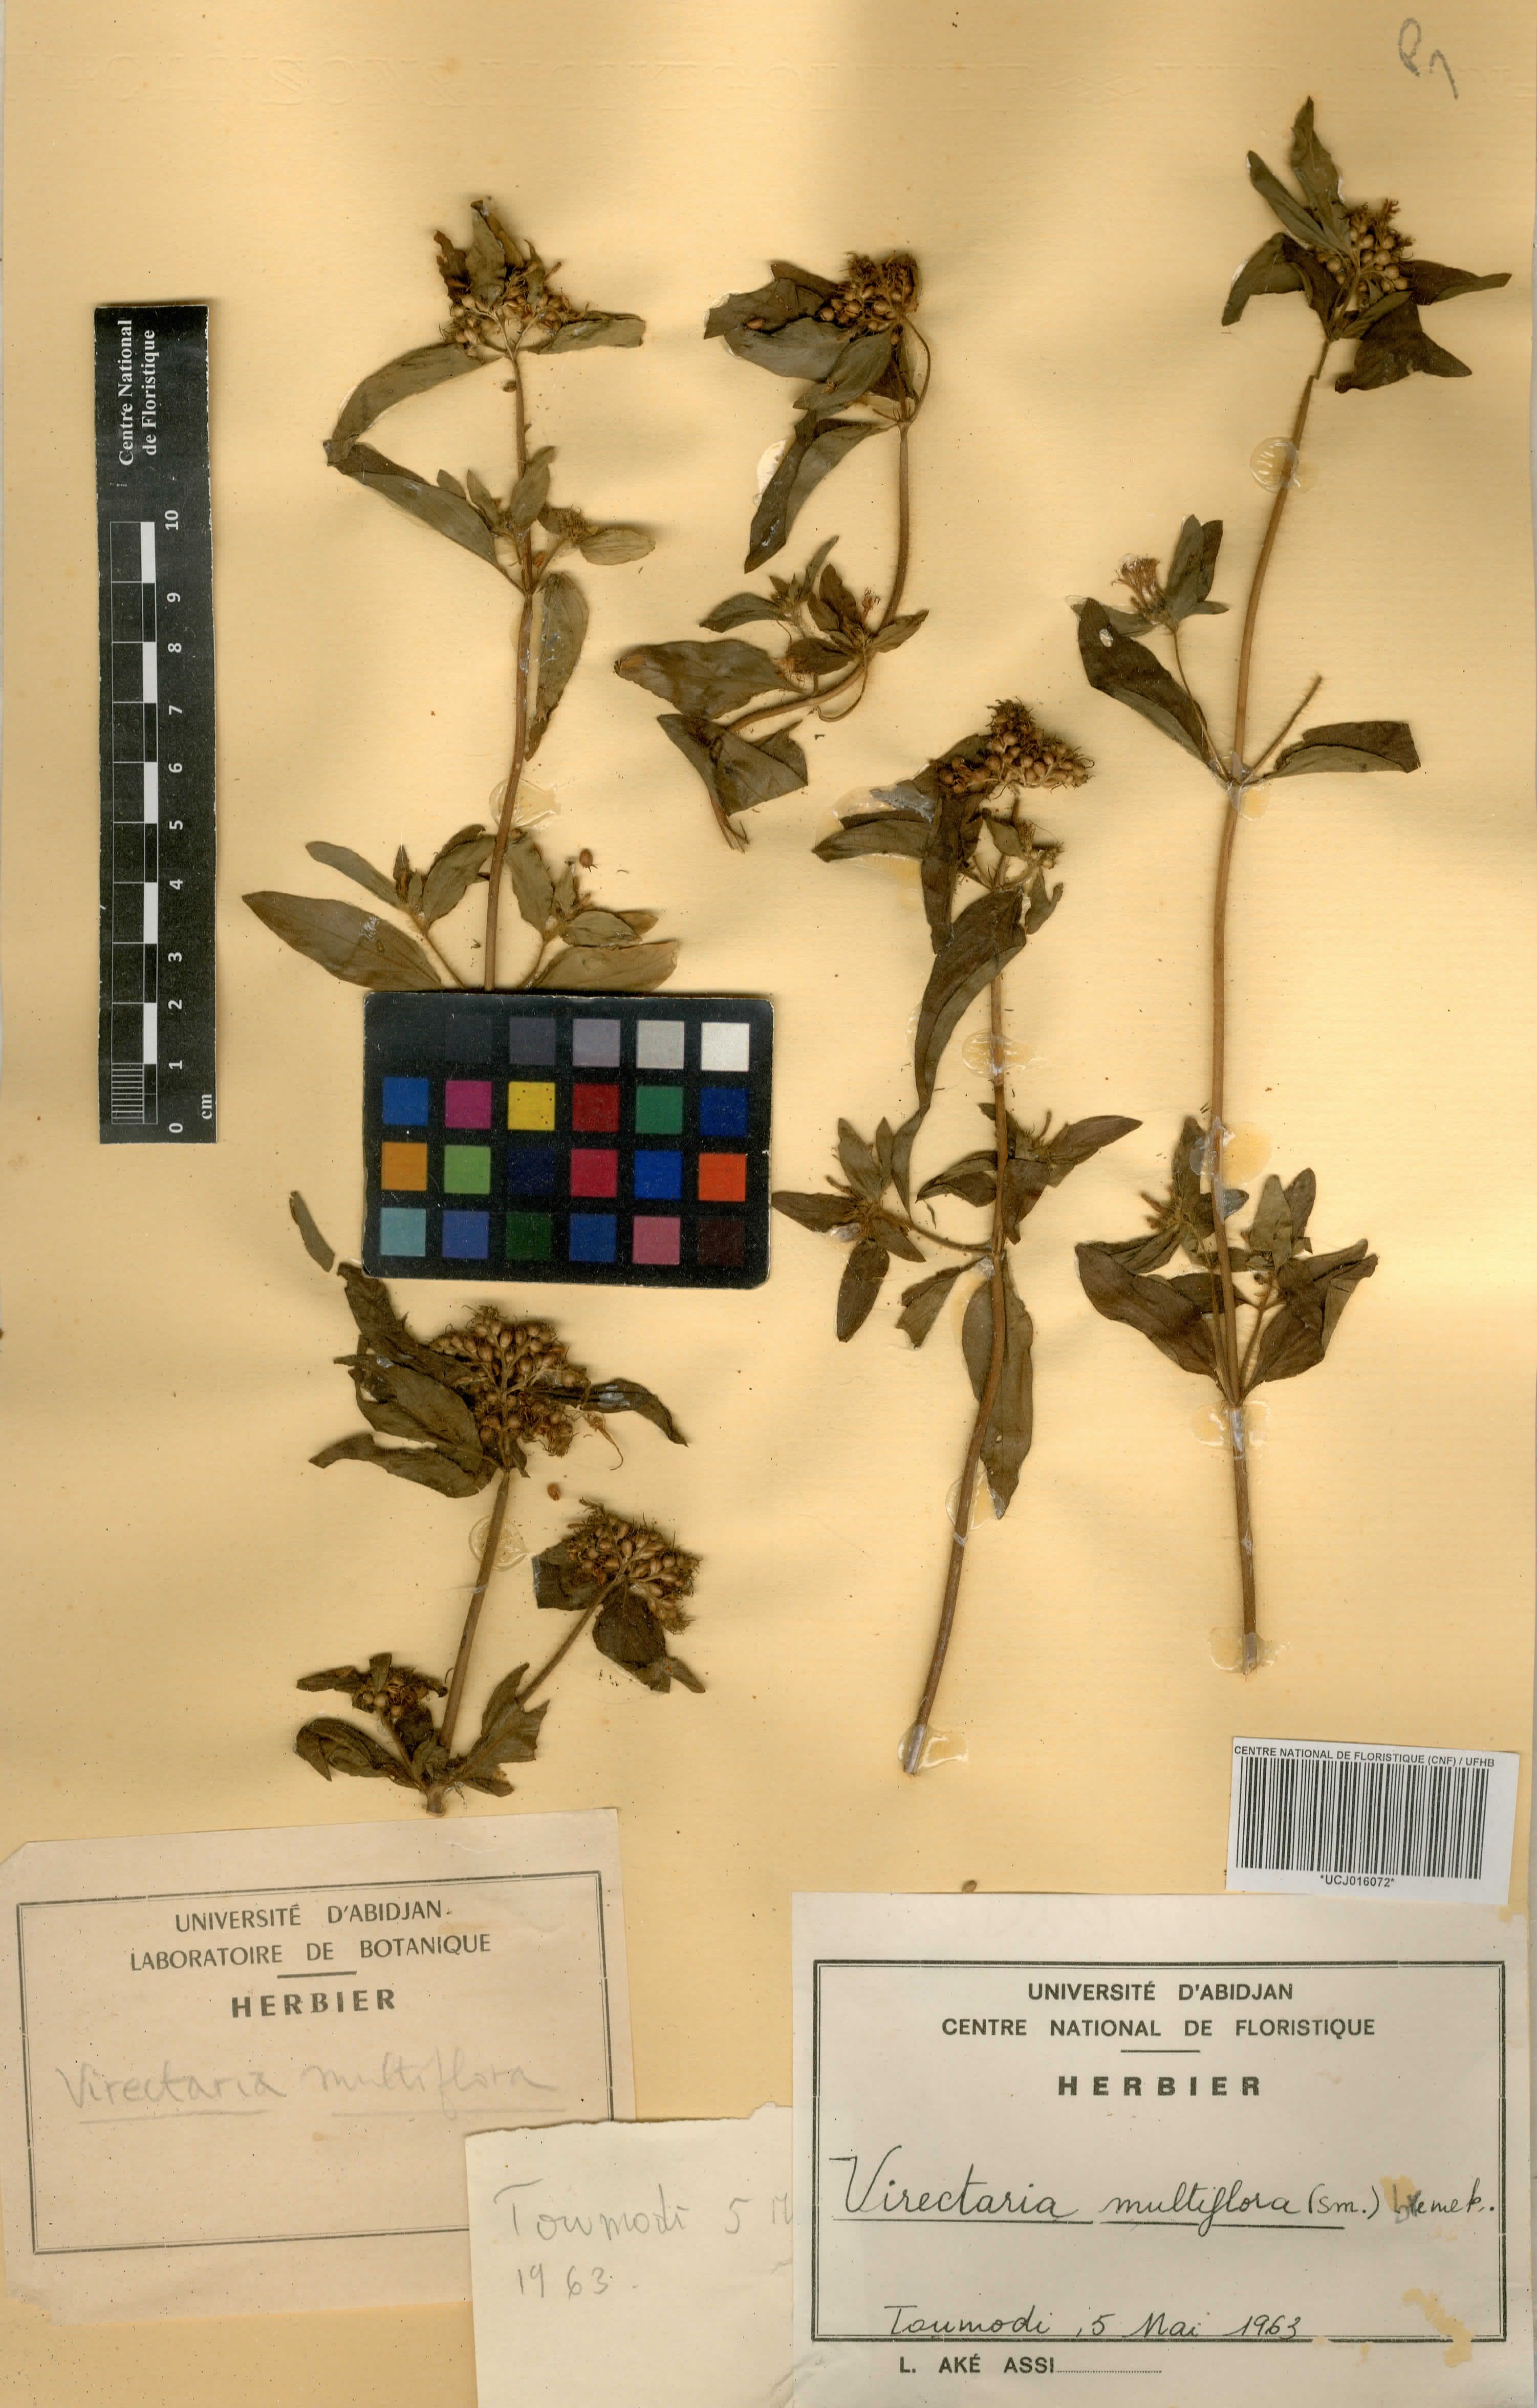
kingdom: Plantae
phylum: Tracheophyta
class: Magnoliopsida
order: Gentianales
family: Rubiaceae
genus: Virectaria
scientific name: Virectaria multiflora
